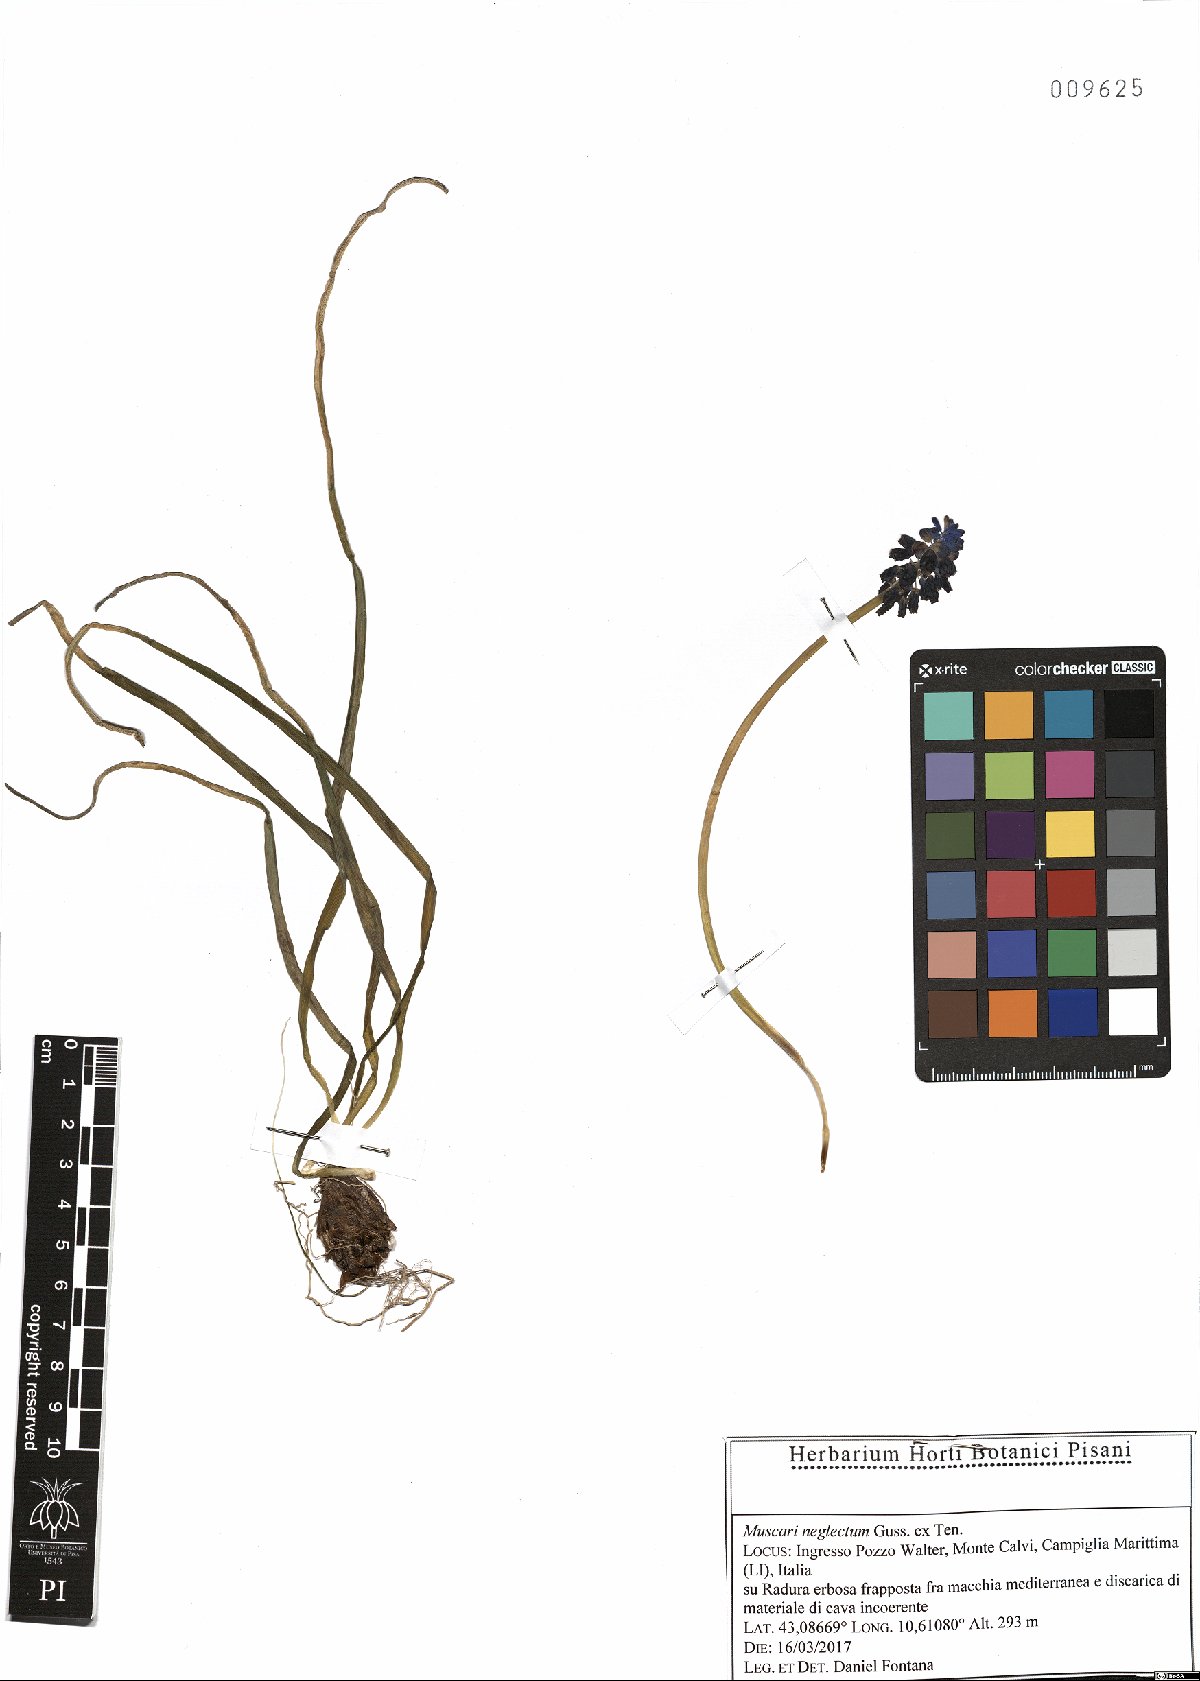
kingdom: Plantae
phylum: Tracheophyta
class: Liliopsida
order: Asparagales
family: Asparagaceae
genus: Muscari
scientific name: Muscari neglectum
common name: Grape-hyacinth
